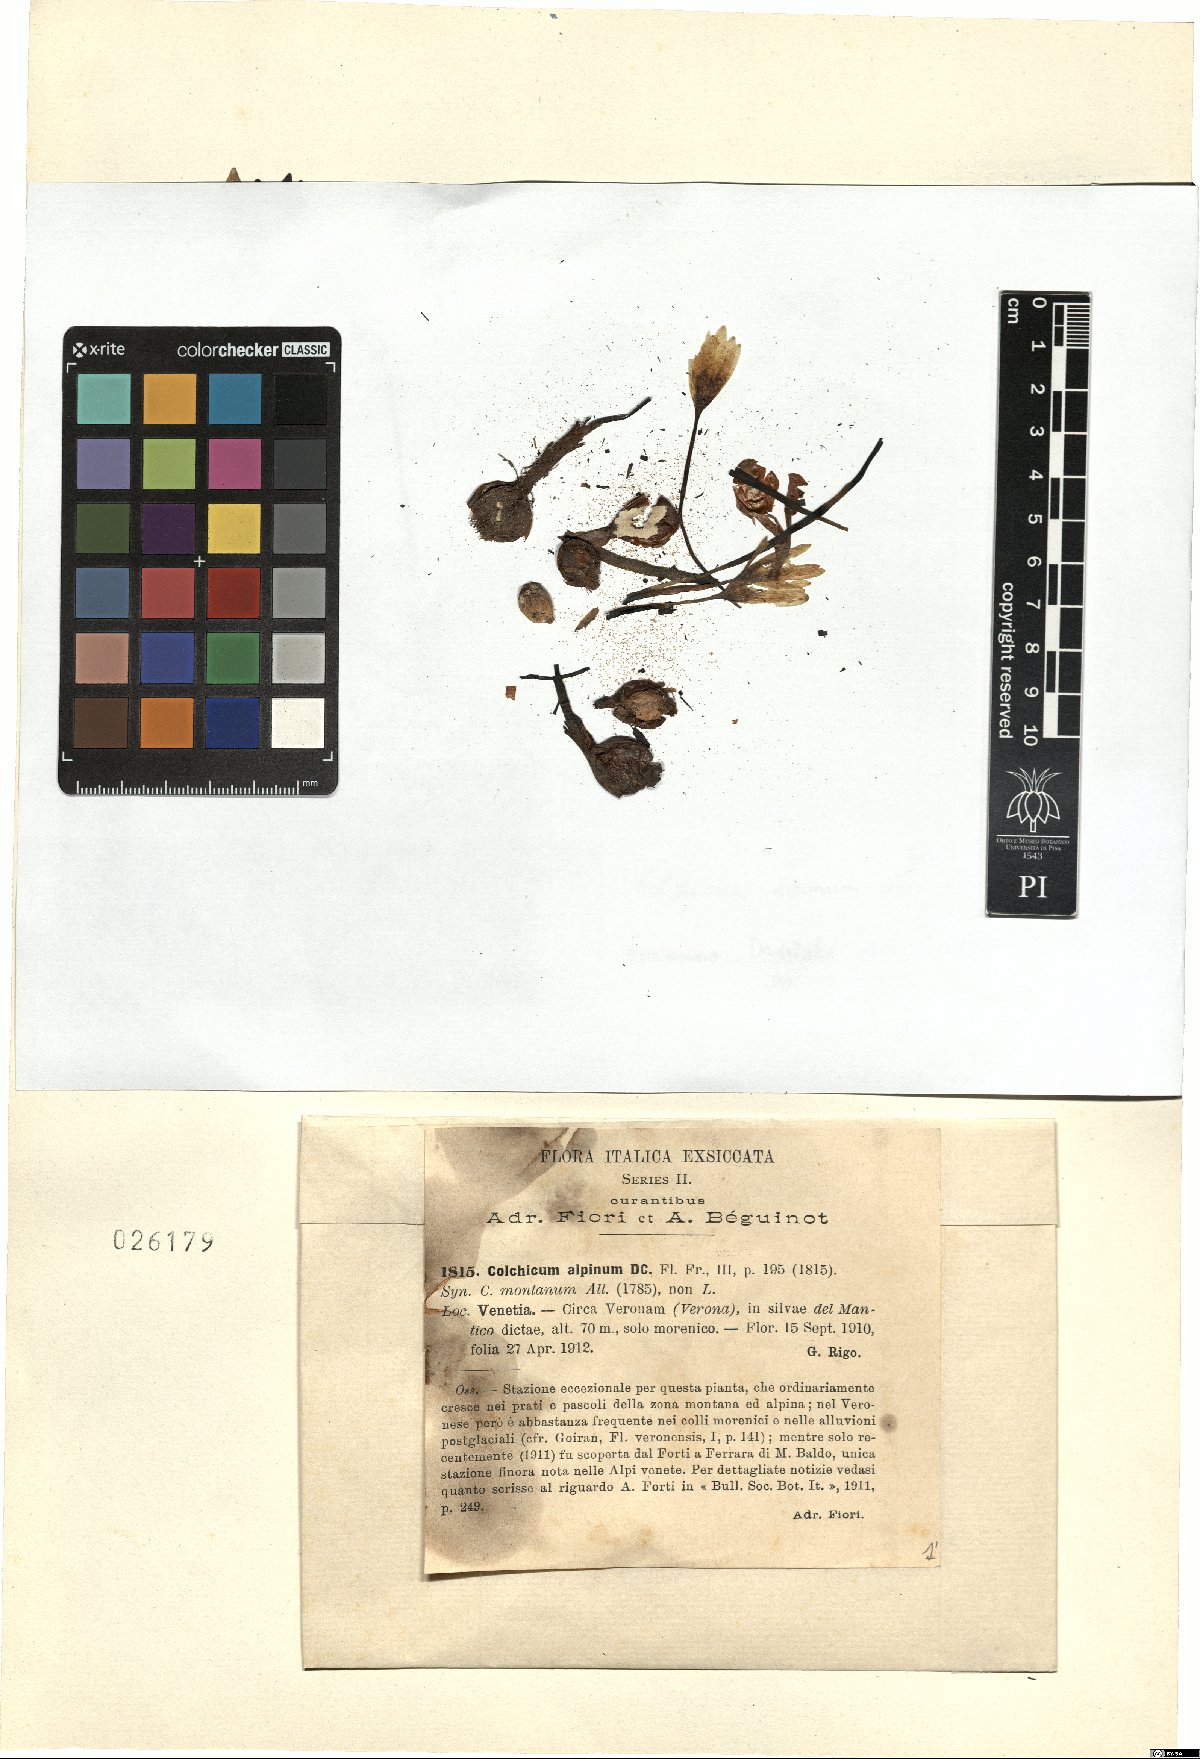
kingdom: Plantae
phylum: Tracheophyta
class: Liliopsida
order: Liliales
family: Colchicaceae
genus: Colchicum
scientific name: Colchicum alpinum
